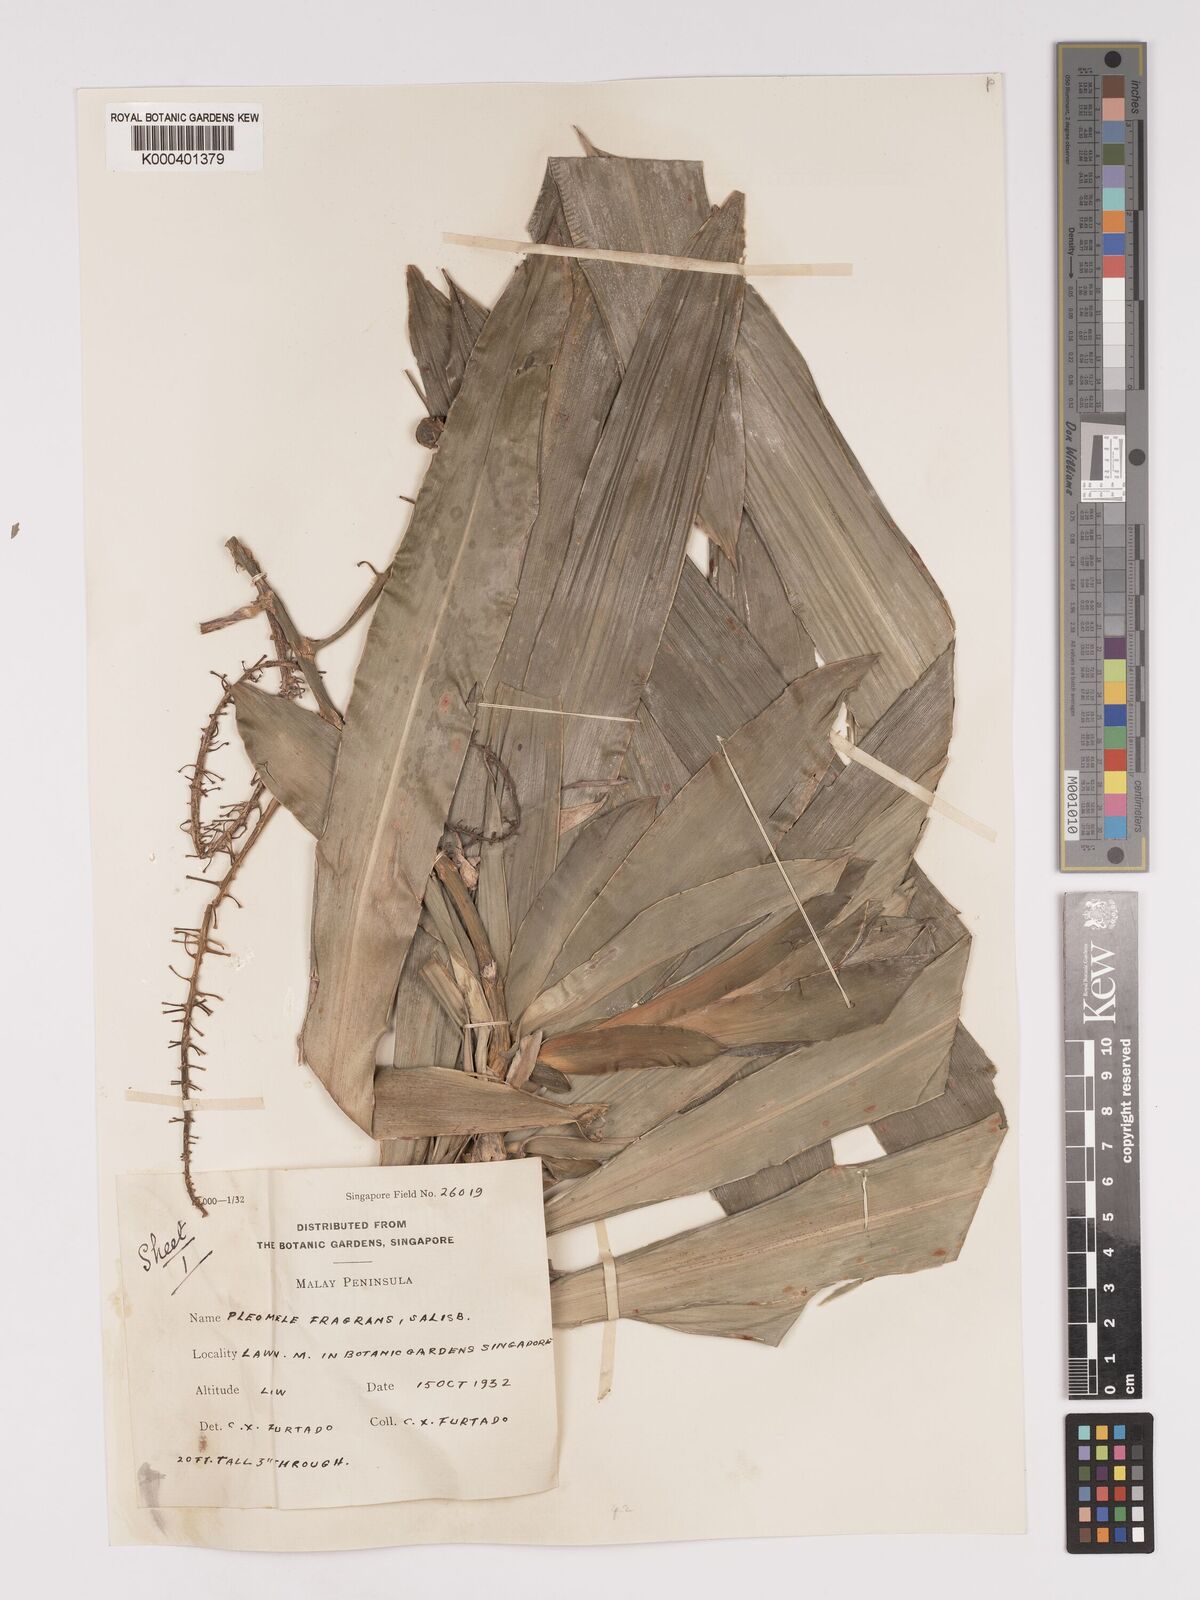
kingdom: Plantae
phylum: Tracheophyta
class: Liliopsida
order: Asparagales
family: Asparagaceae
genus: Dracaena
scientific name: Dracaena
